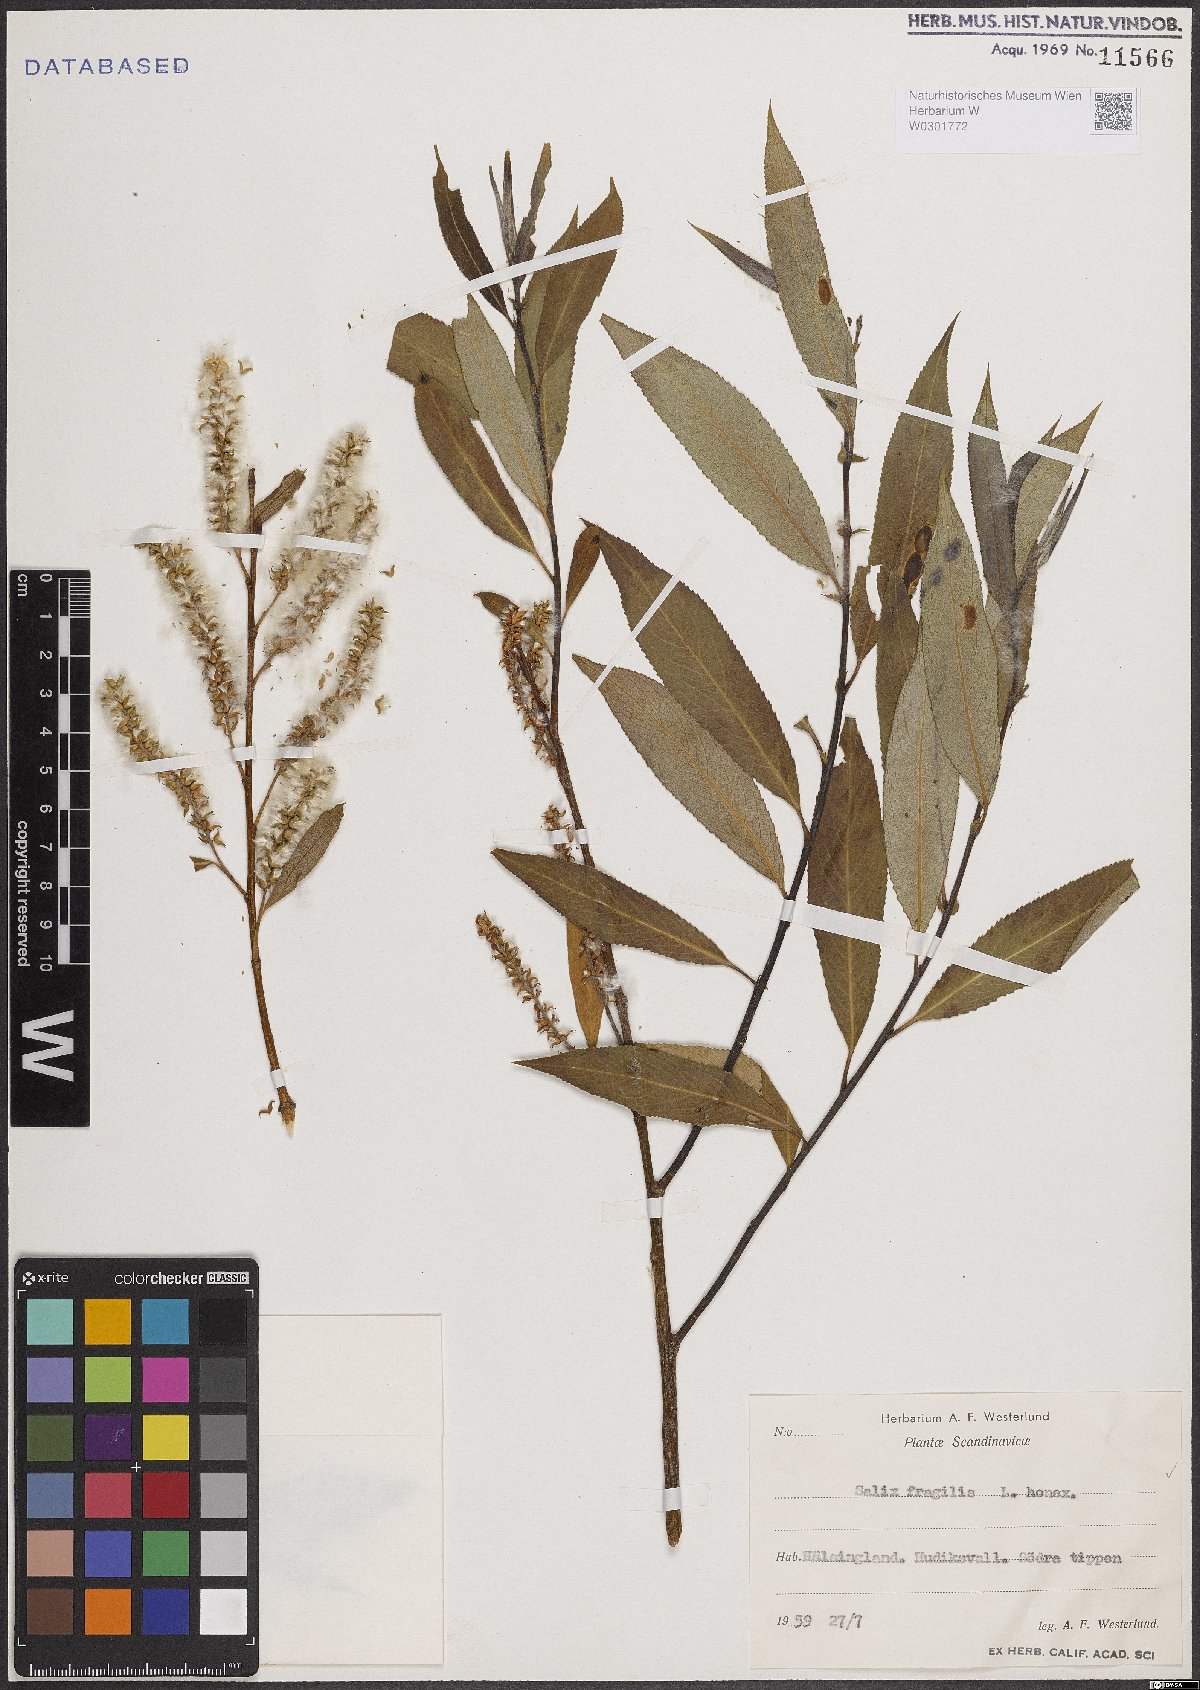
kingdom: Plantae
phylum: Tracheophyta
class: Magnoliopsida
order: Malpighiales
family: Salicaceae
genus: Salix
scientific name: Salix fragilis
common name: Crack willow
